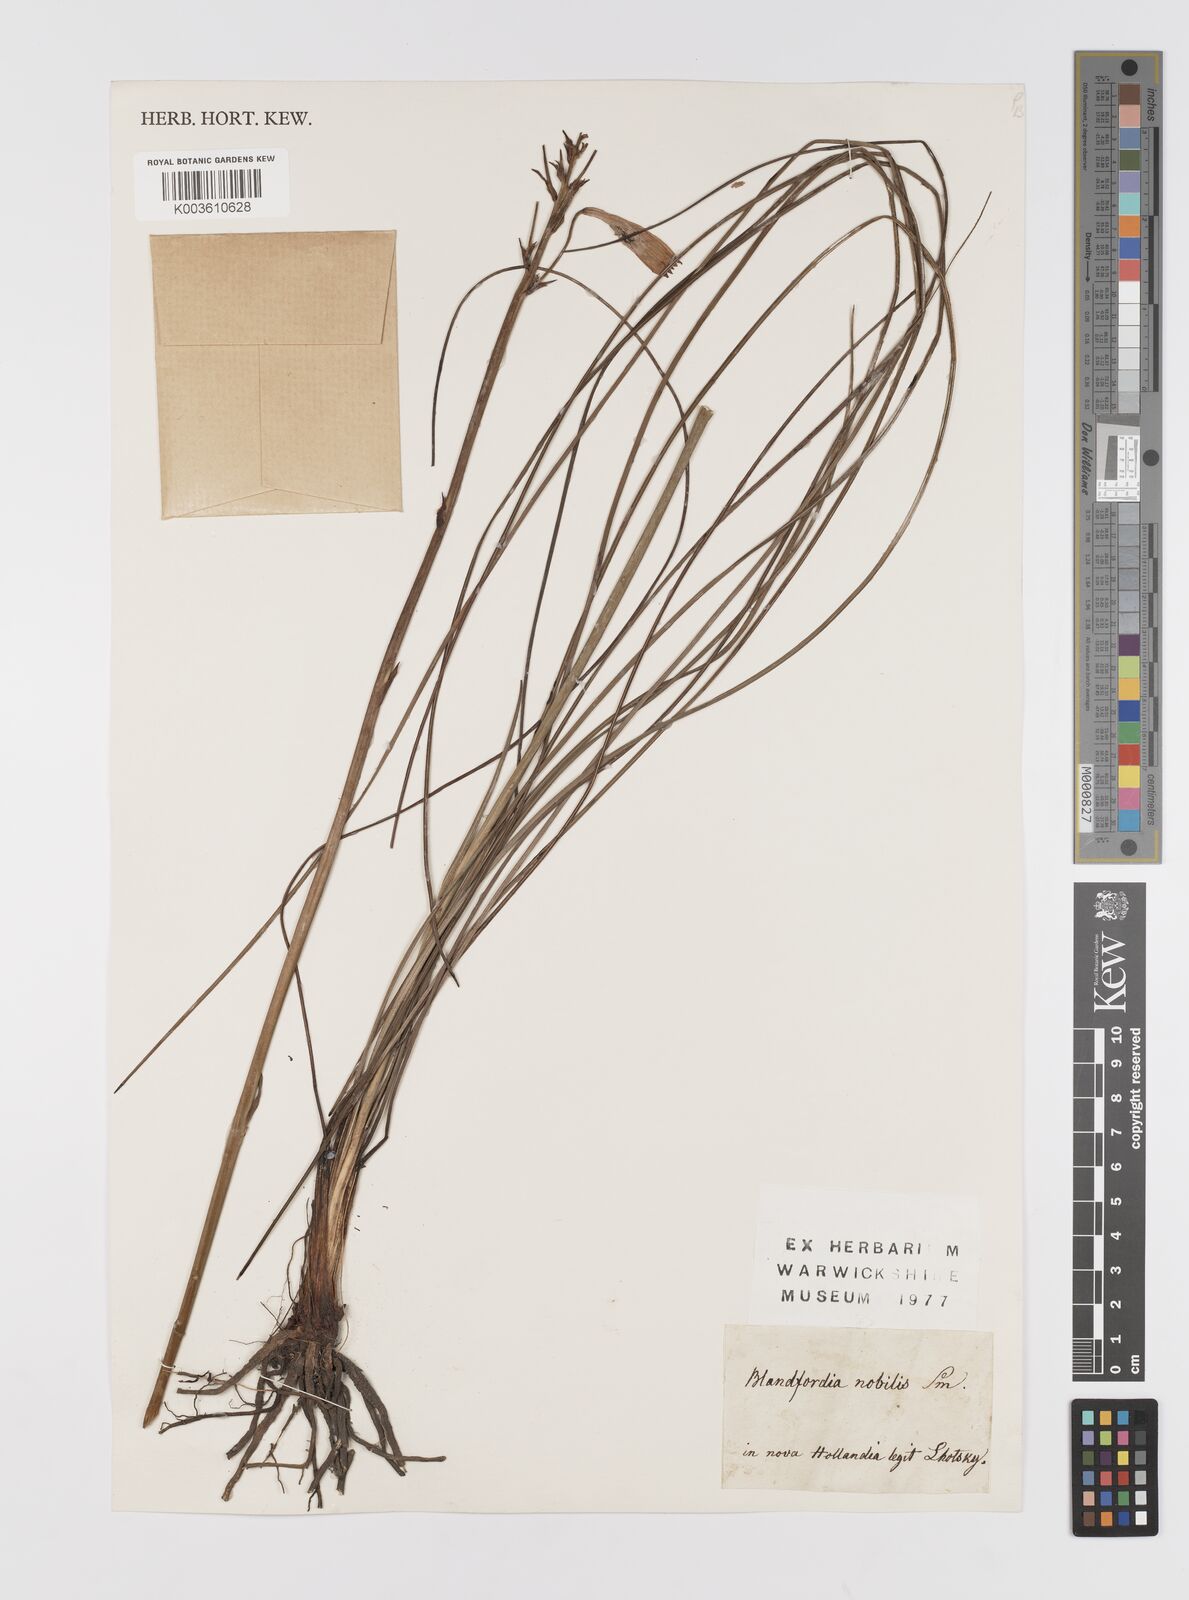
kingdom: Plantae
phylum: Tracheophyta
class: Liliopsida
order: Asparagales
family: Blandfordiaceae
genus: Blandfordia
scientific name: Blandfordia nobilis
